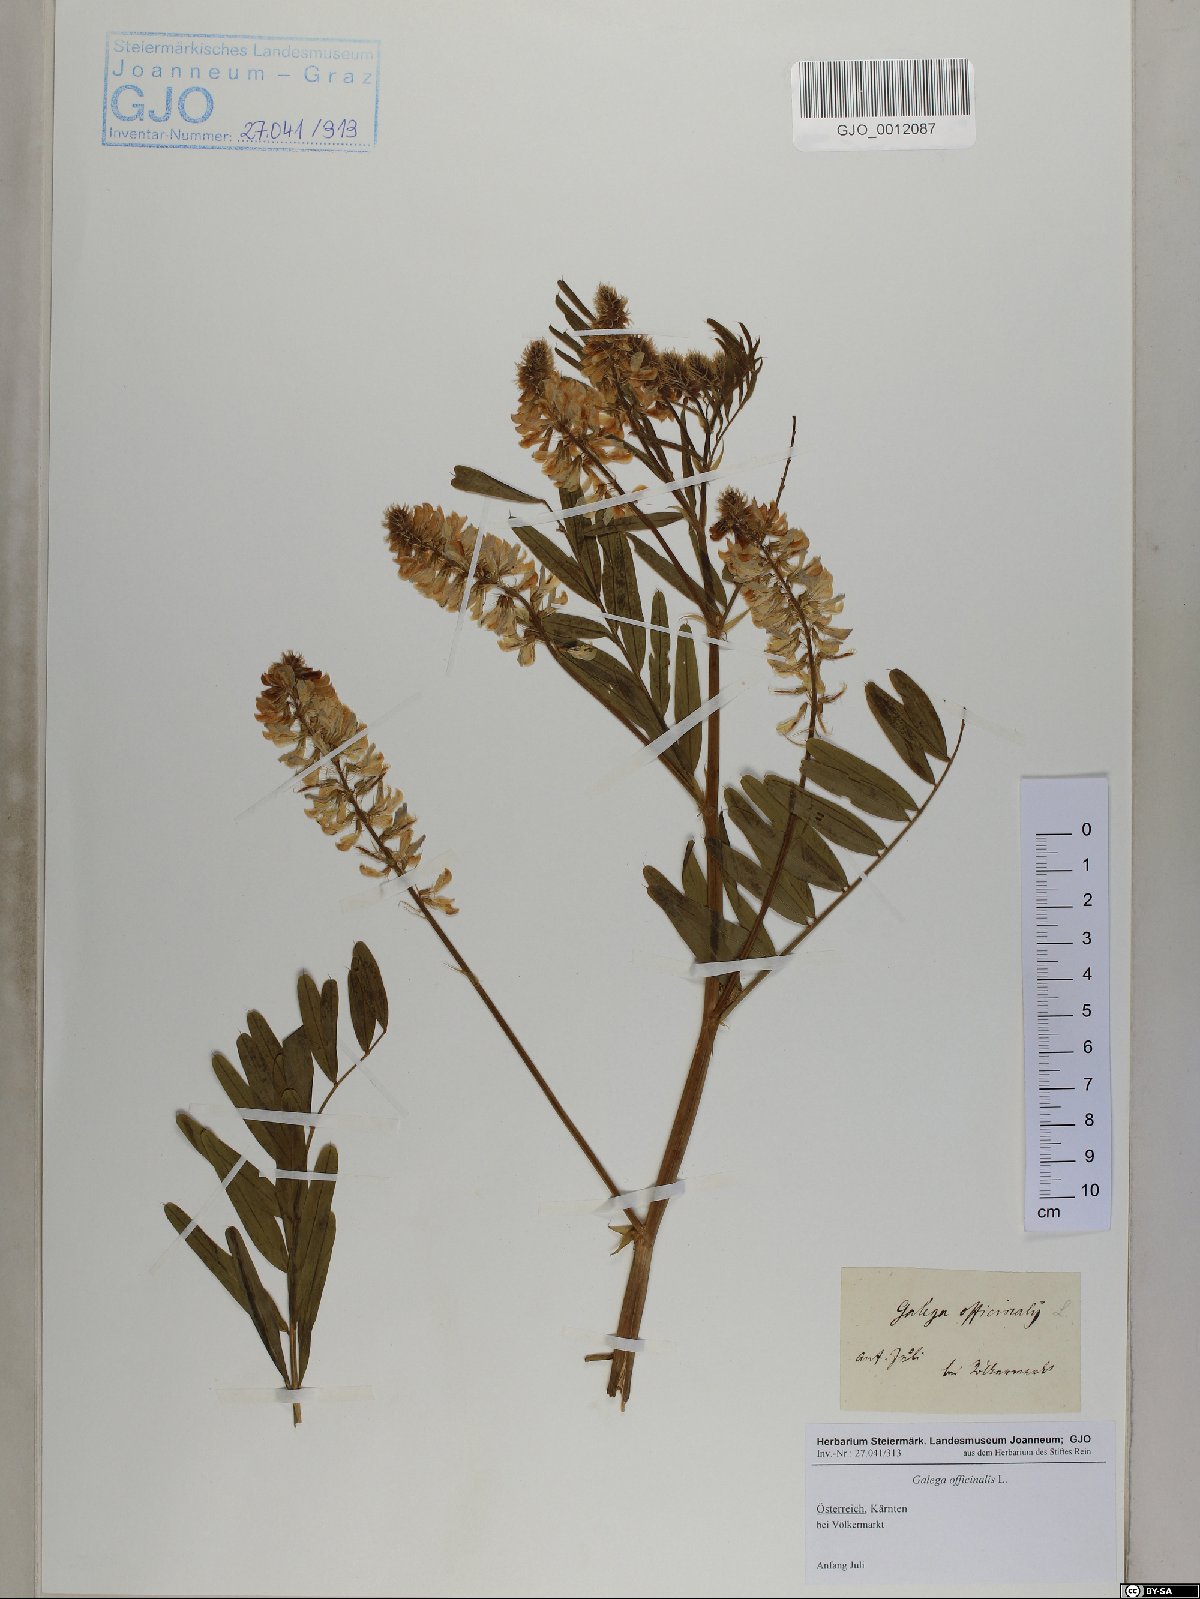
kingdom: Plantae
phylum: Tracheophyta
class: Magnoliopsida
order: Fabales
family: Fabaceae
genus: Galega
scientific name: Galega officinalis
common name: Goat's-rue
